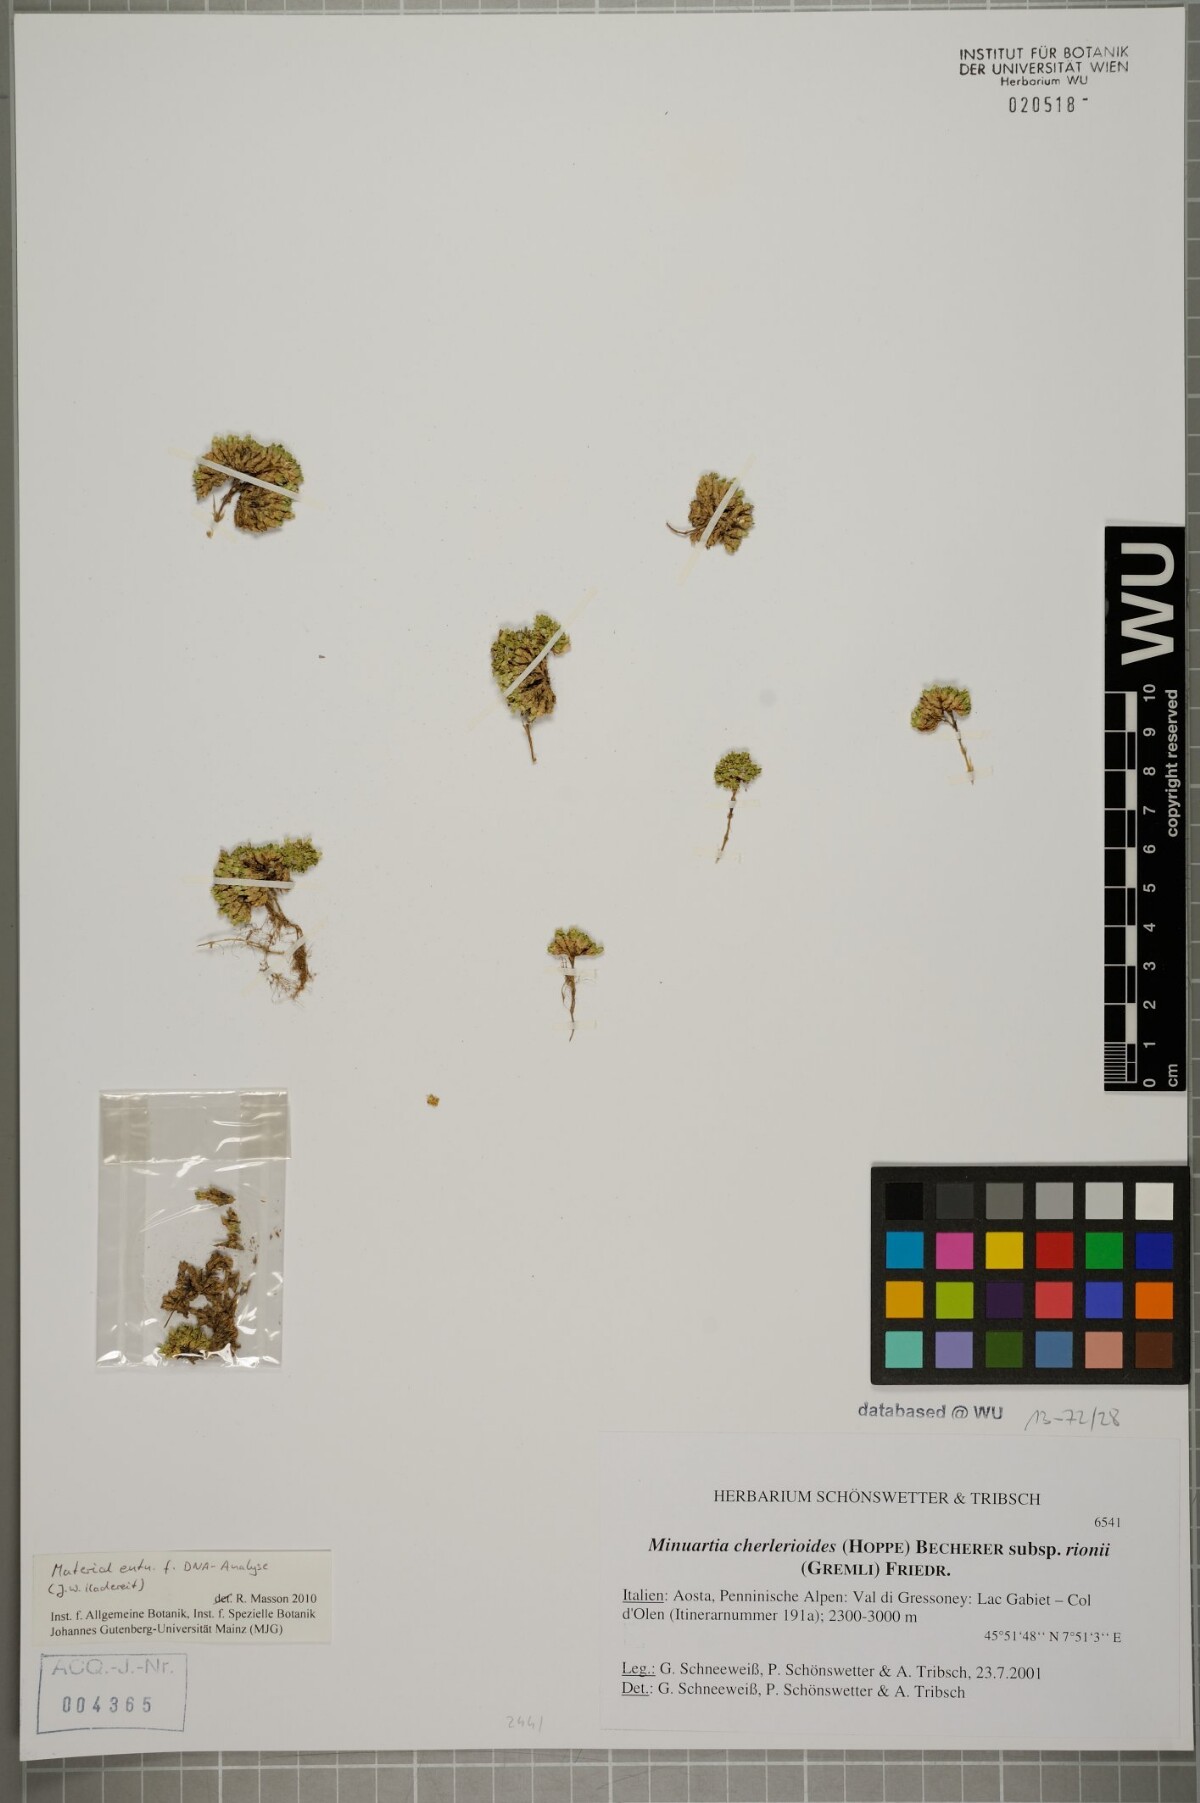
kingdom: Plantae
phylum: Tracheophyta
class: Magnoliopsida
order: Caryophyllales
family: Caryophyllaceae
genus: Facchinia
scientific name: Facchinia herniarioides
